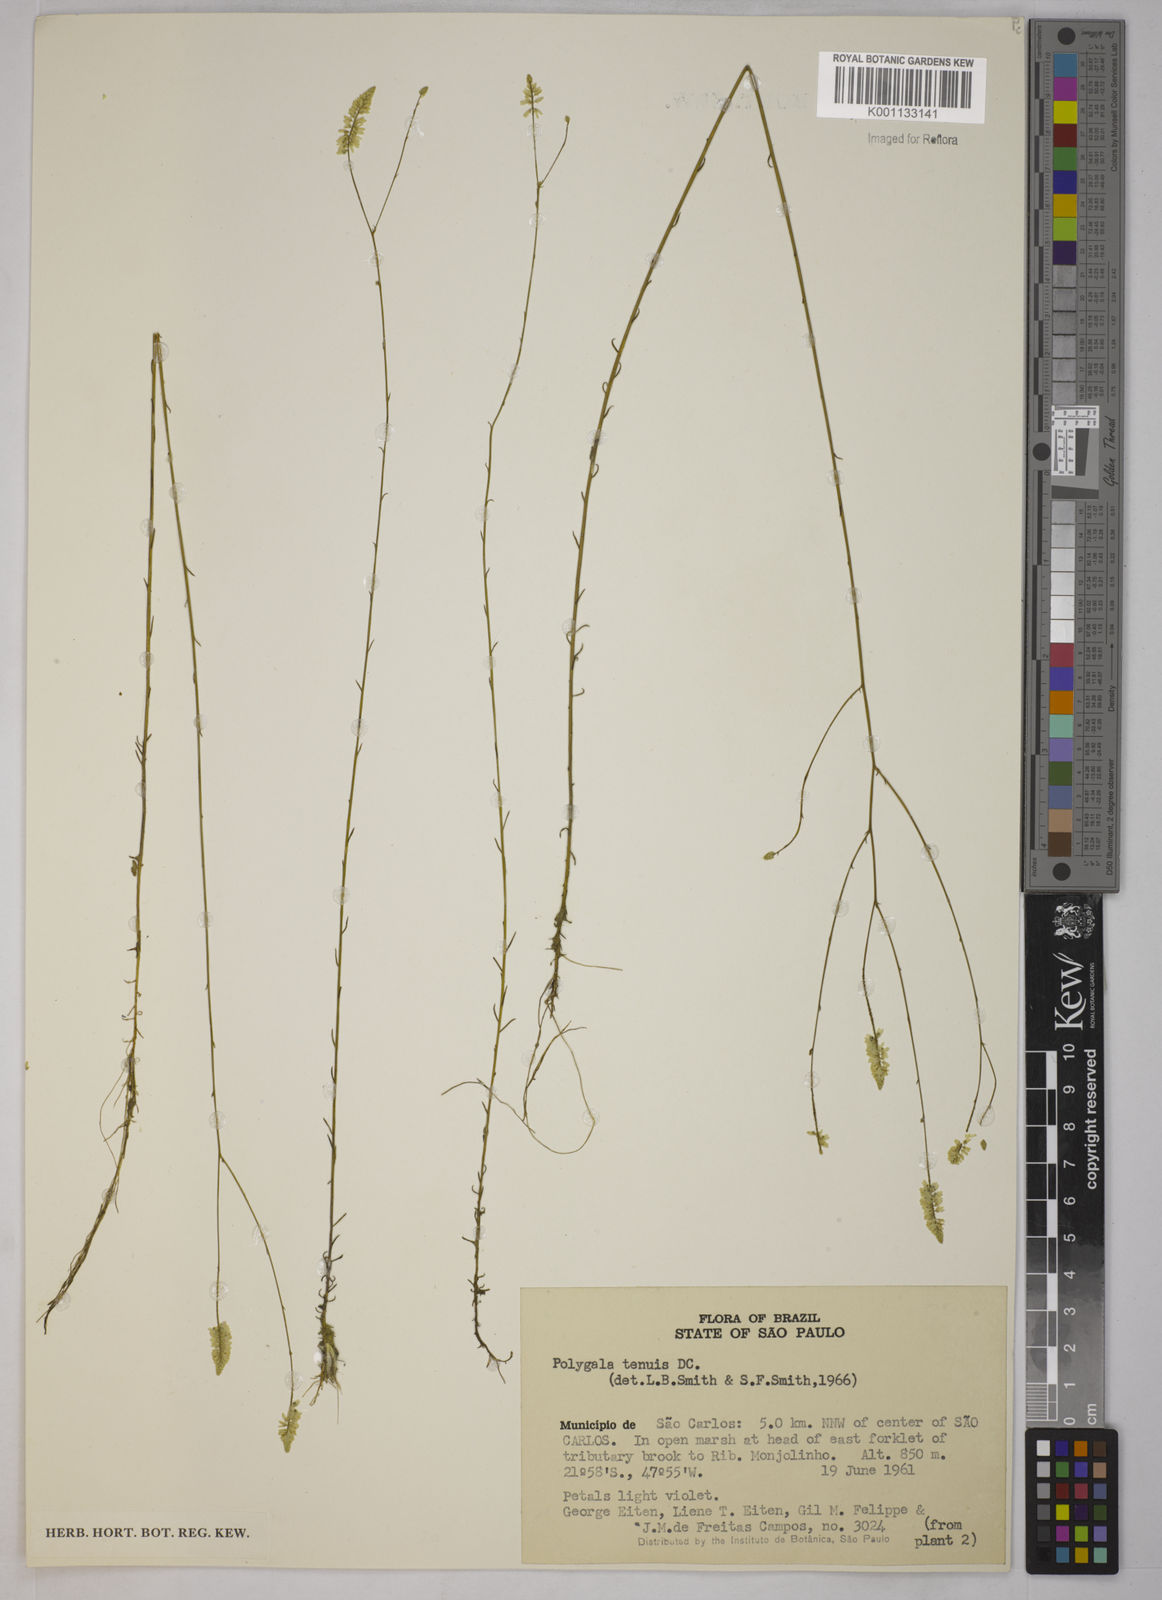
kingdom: Plantae
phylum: Tracheophyta
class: Magnoliopsida
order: Fabales
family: Polygalaceae
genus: Polygala
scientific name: Polygala tenuis
